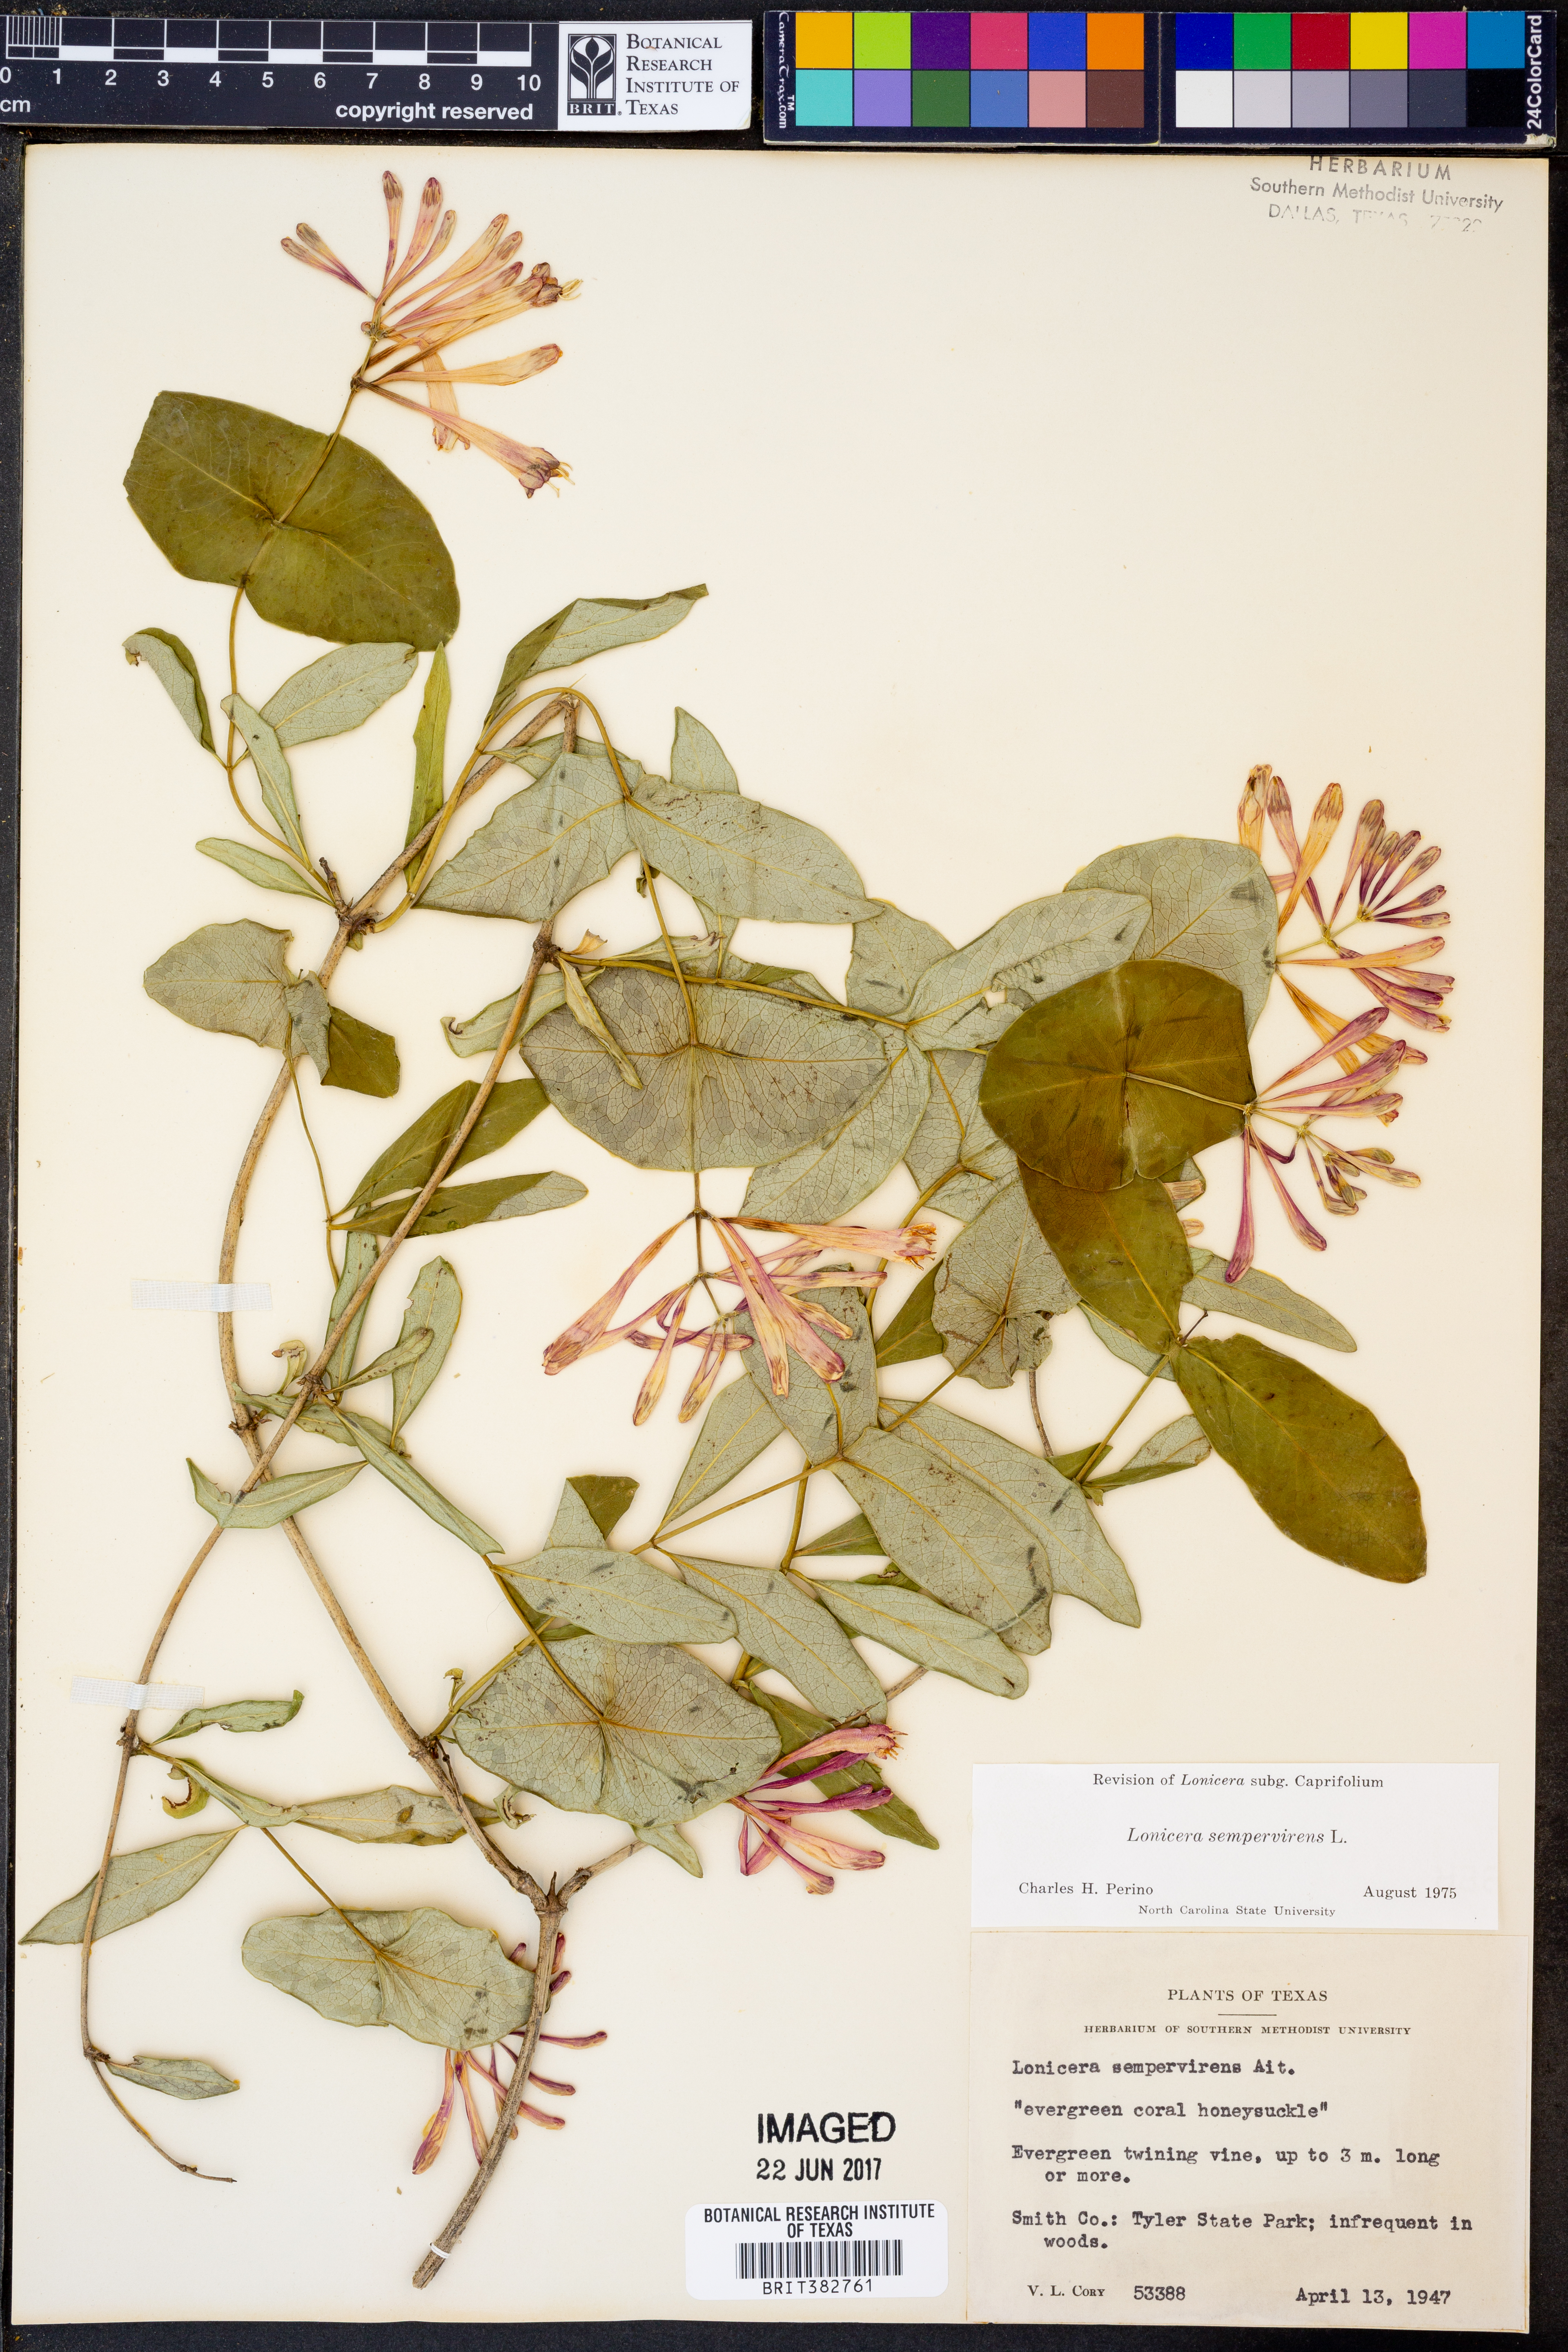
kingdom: Plantae
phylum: Tracheophyta
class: Magnoliopsida
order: Dipsacales
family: Caprifoliaceae
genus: Lonicera
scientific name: Lonicera sempervirens
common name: Coral honeysuckle
